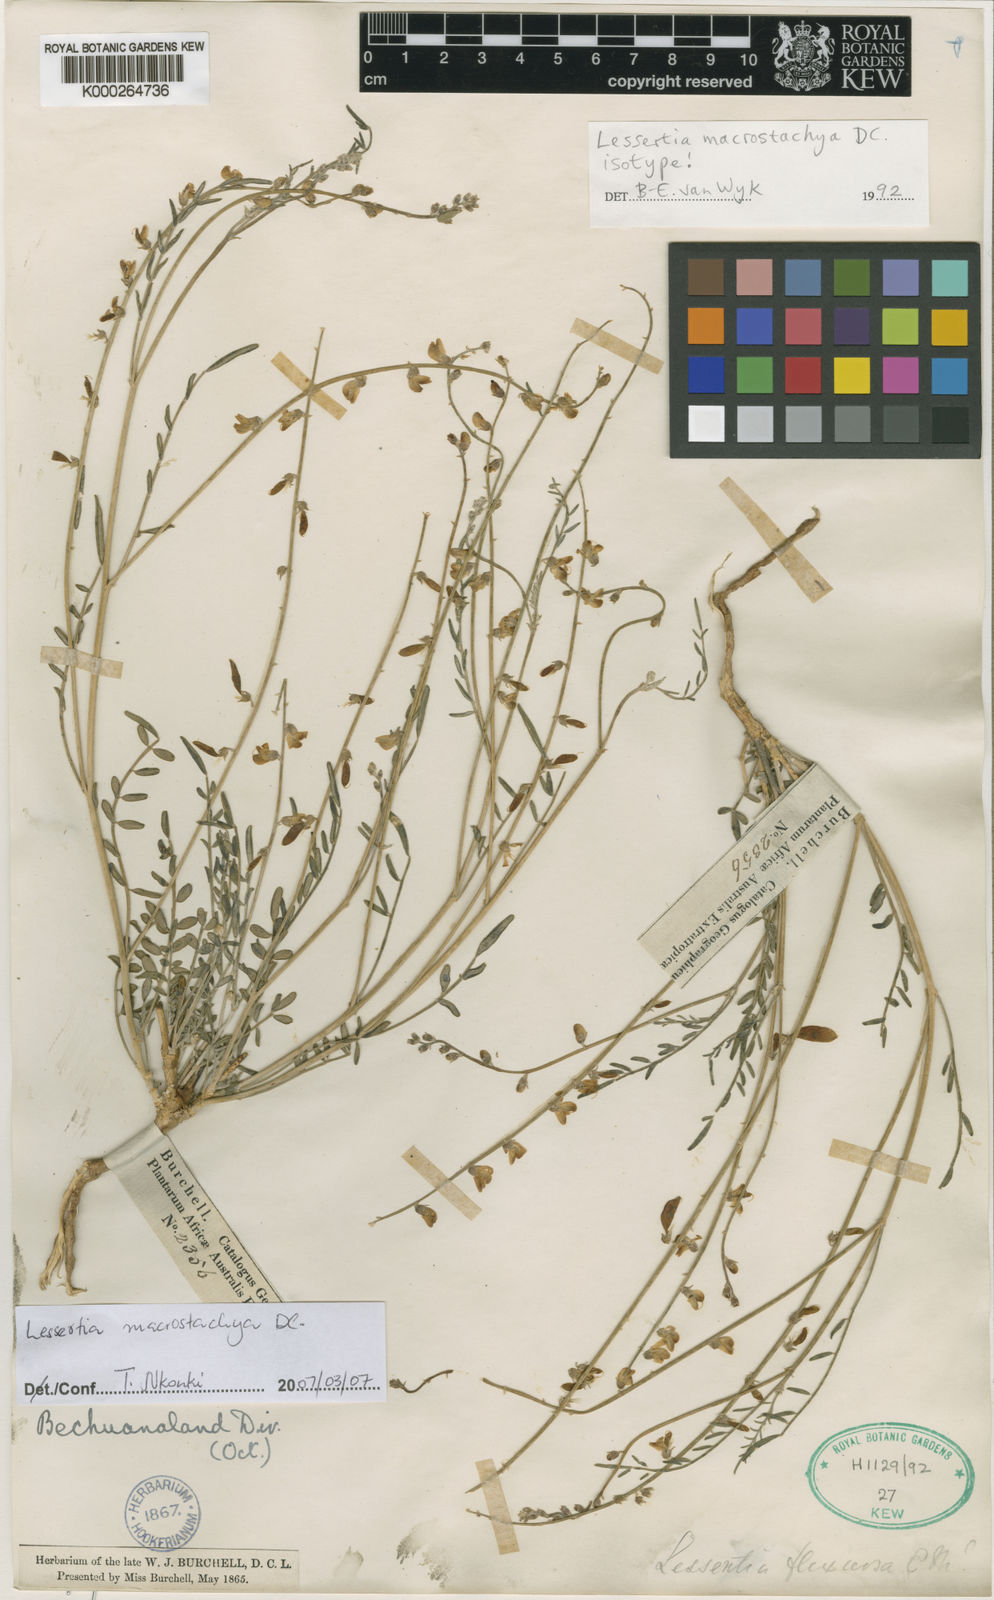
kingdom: Plantae
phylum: Tracheophyta
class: Magnoliopsida
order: Fabales
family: Fabaceae
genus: Lessertia
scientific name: Lessertia macrostachya
